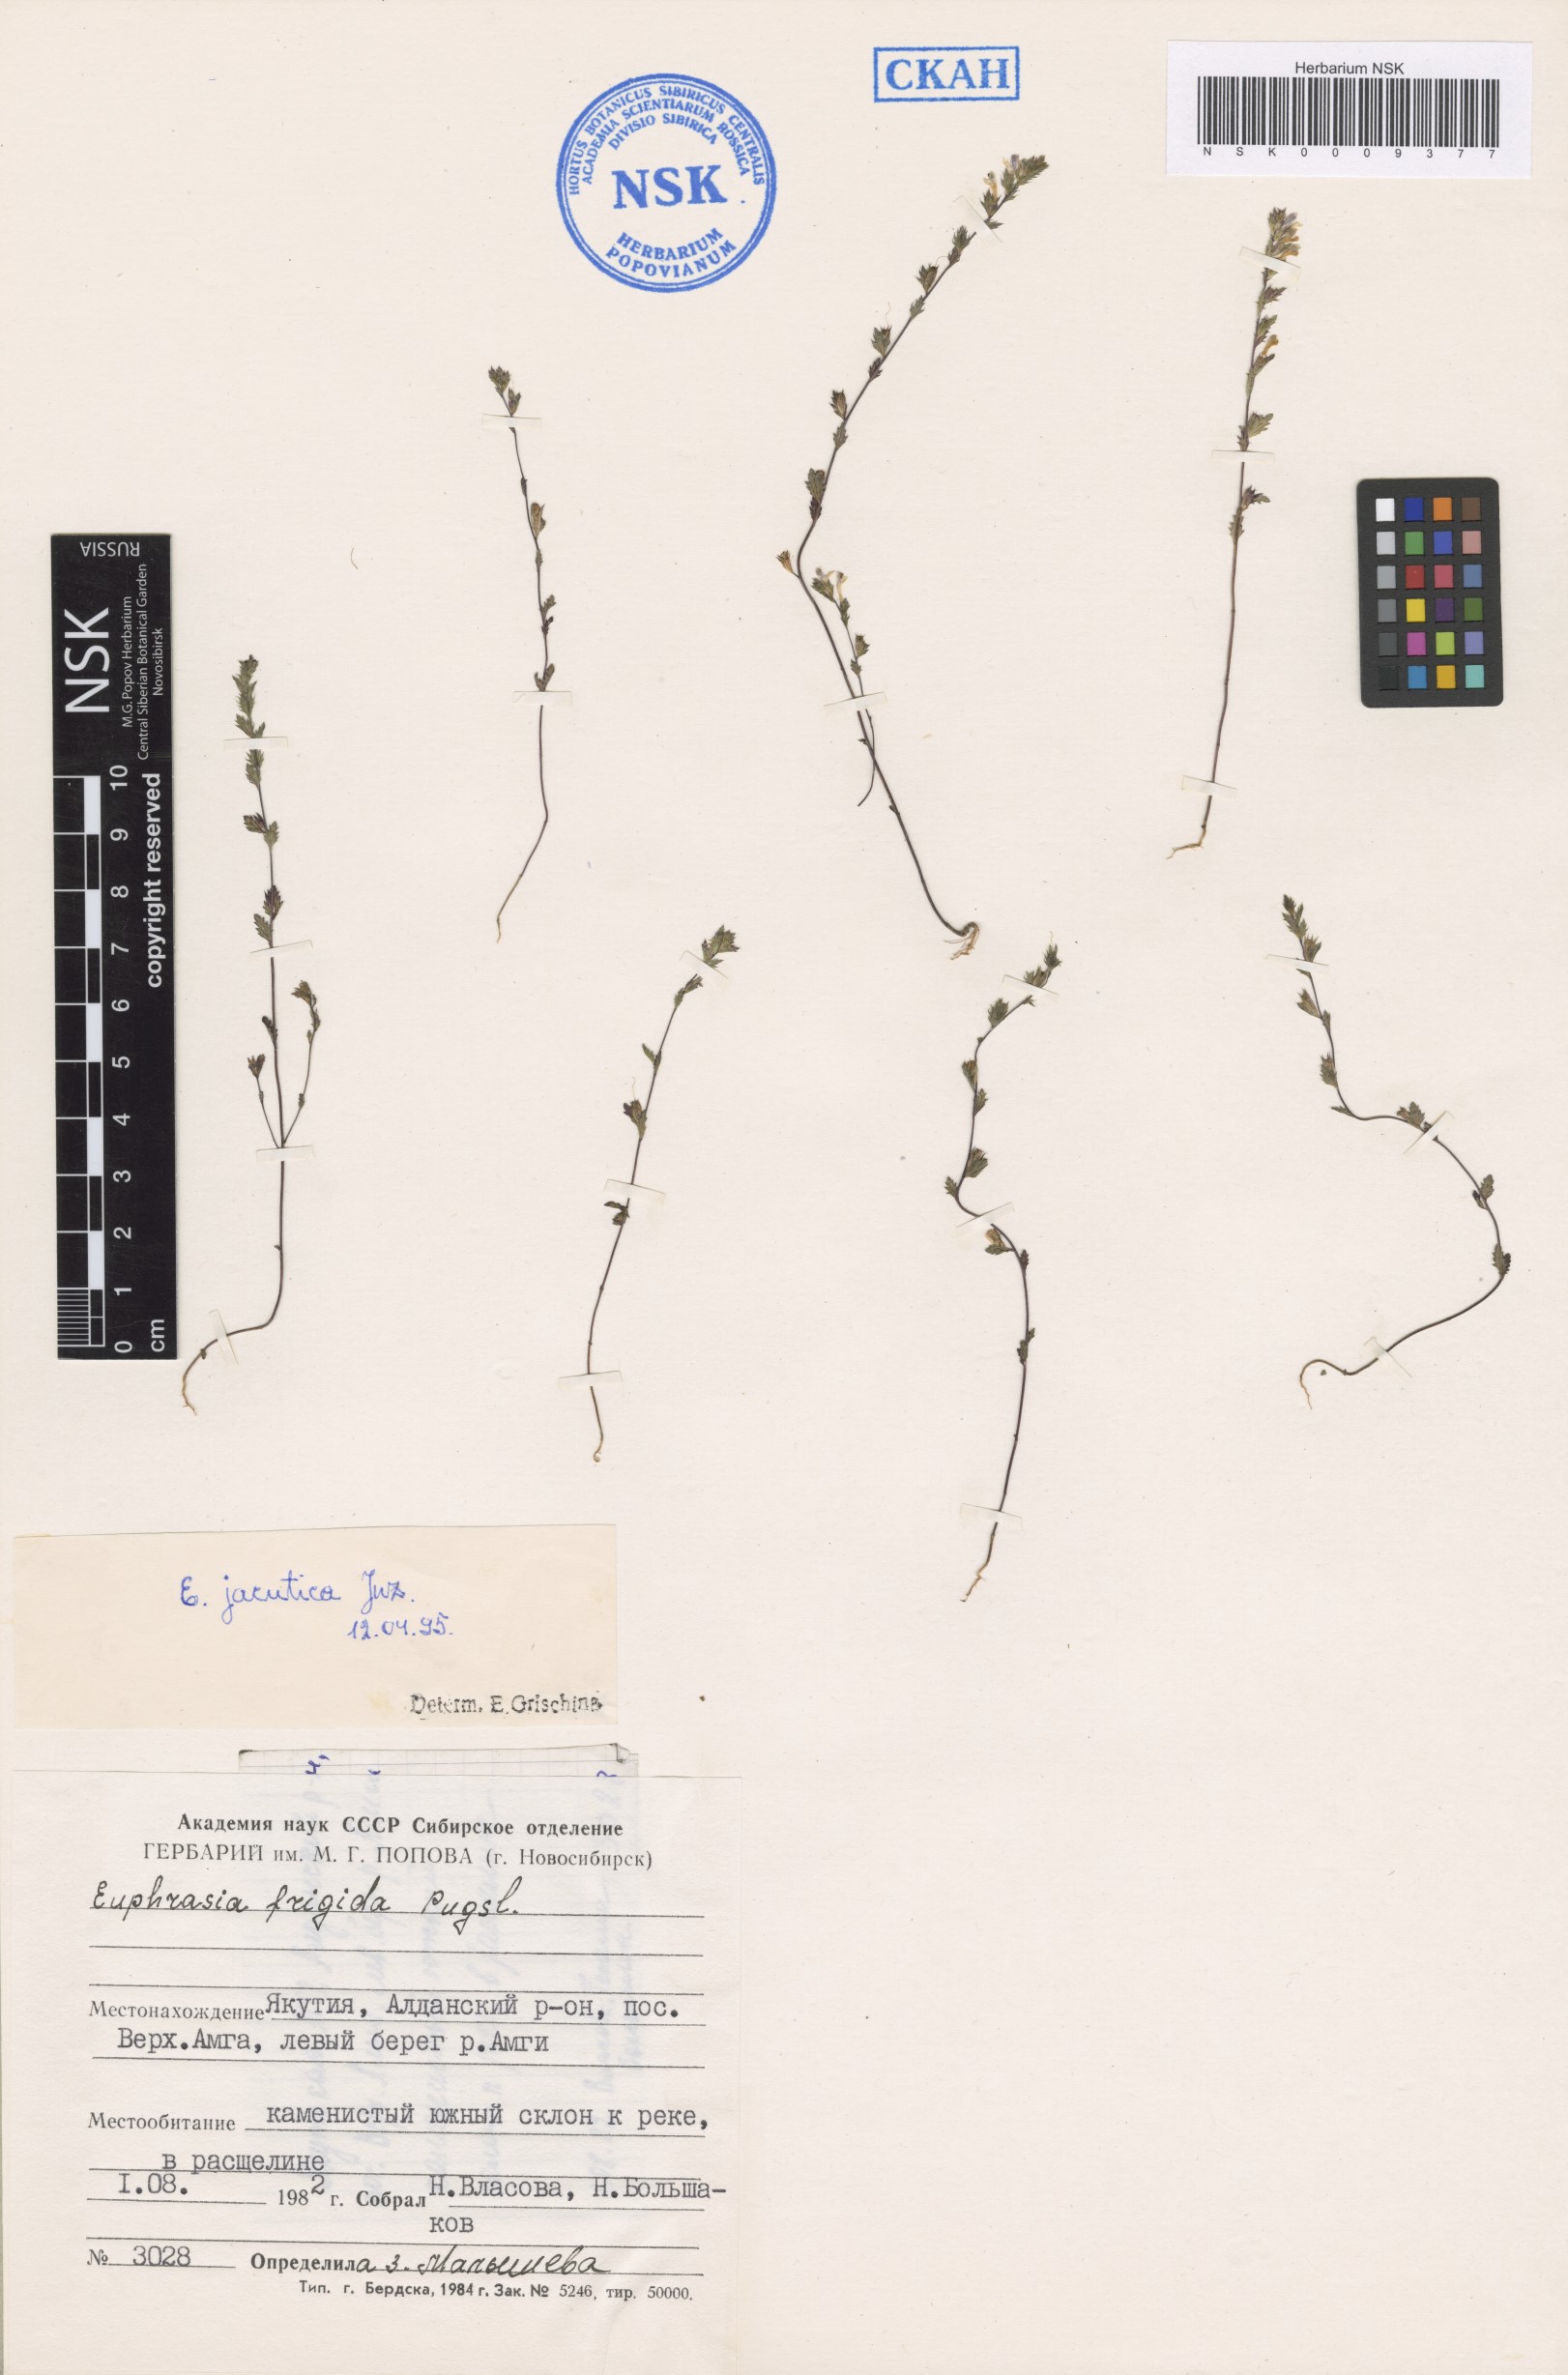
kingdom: Plantae
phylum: Tracheophyta
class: Magnoliopsida
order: Lamiales
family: Orobanchaceae
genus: Euphrasia
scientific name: Euphrasia jacutica
